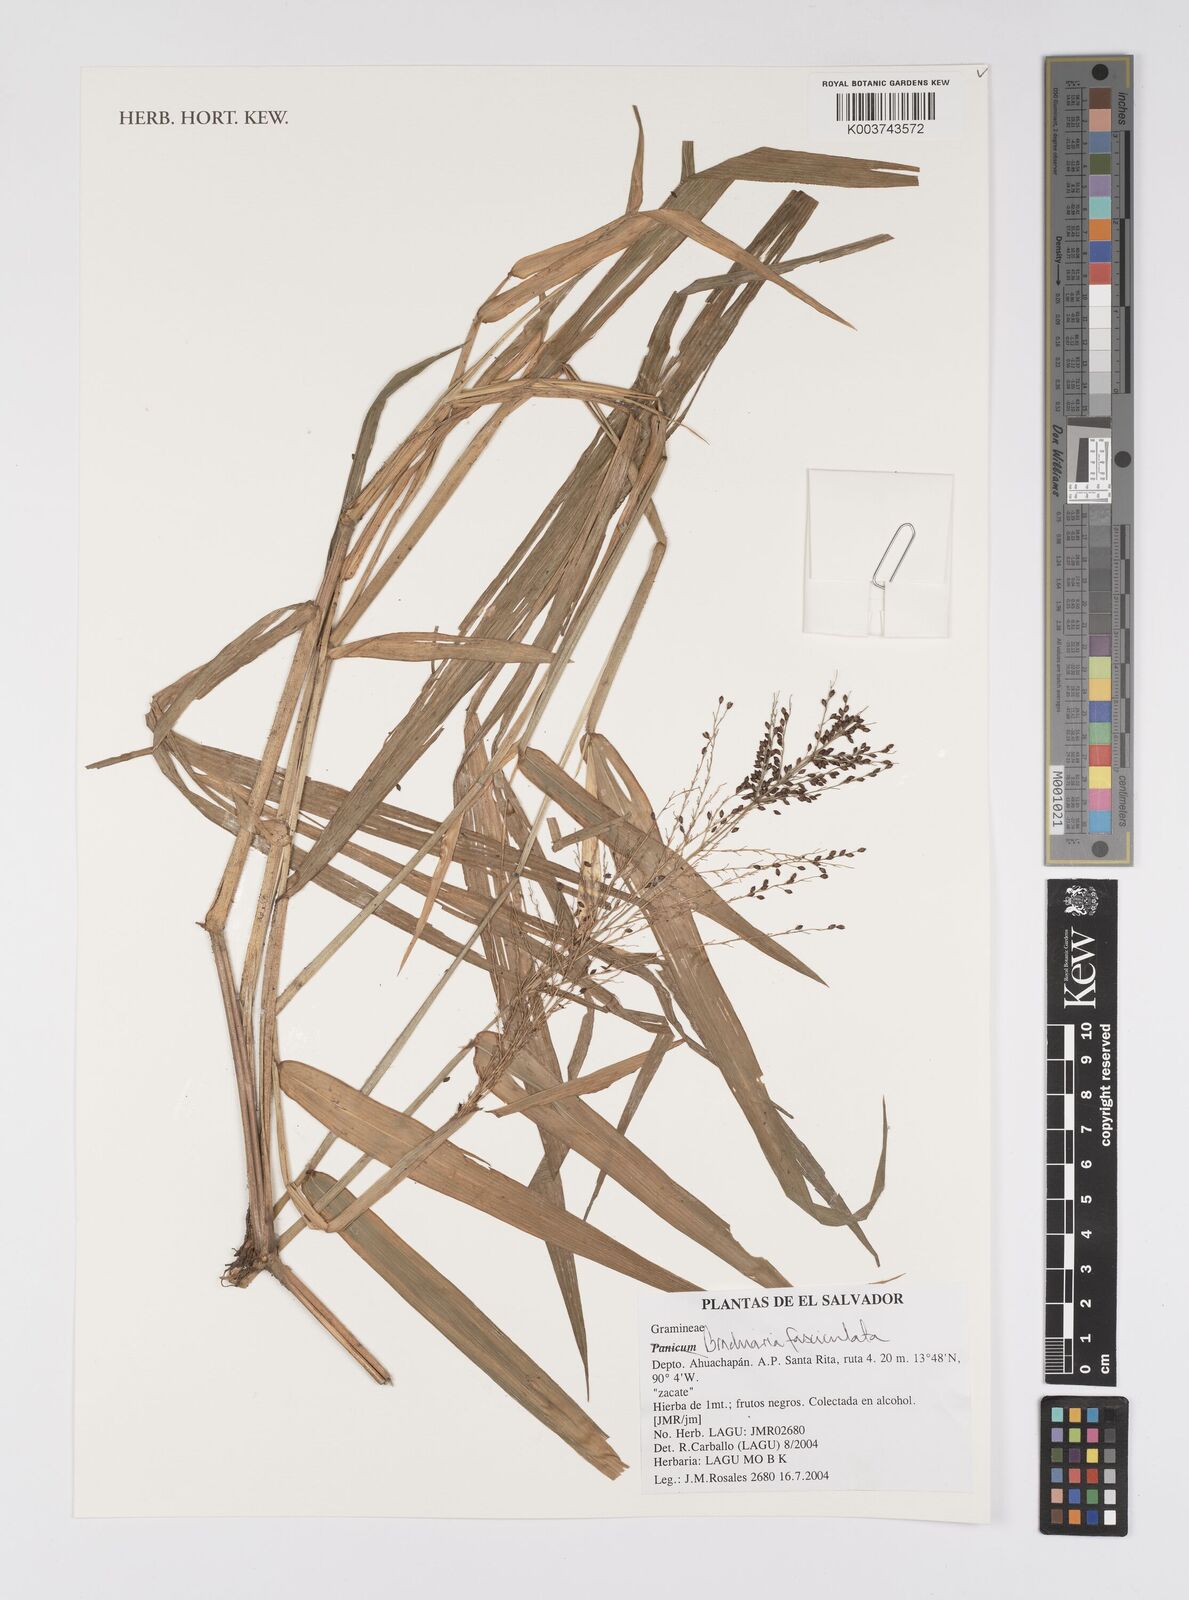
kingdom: Plantae
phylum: Tracheophyta
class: Liliopsida
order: Poales
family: Poaceae
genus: Urochloa
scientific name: Urochloa fusca
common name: Browntop signal grass
